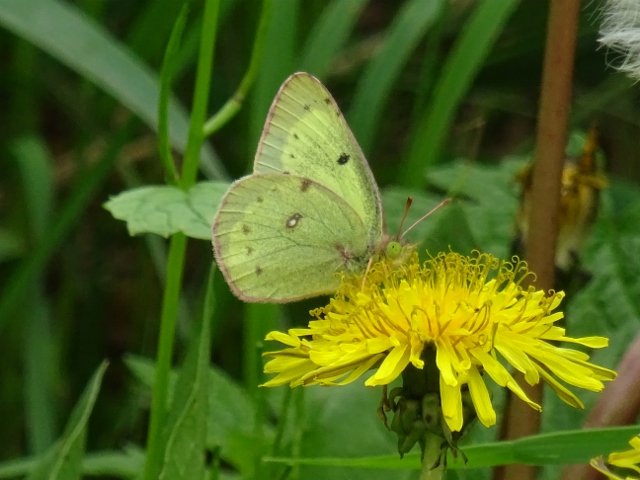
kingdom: Animalia
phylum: Arthropoda
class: Insecta
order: Lepidoptera
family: Pieridae
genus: Colias
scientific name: Colias philodice
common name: Clouded Sulphur
